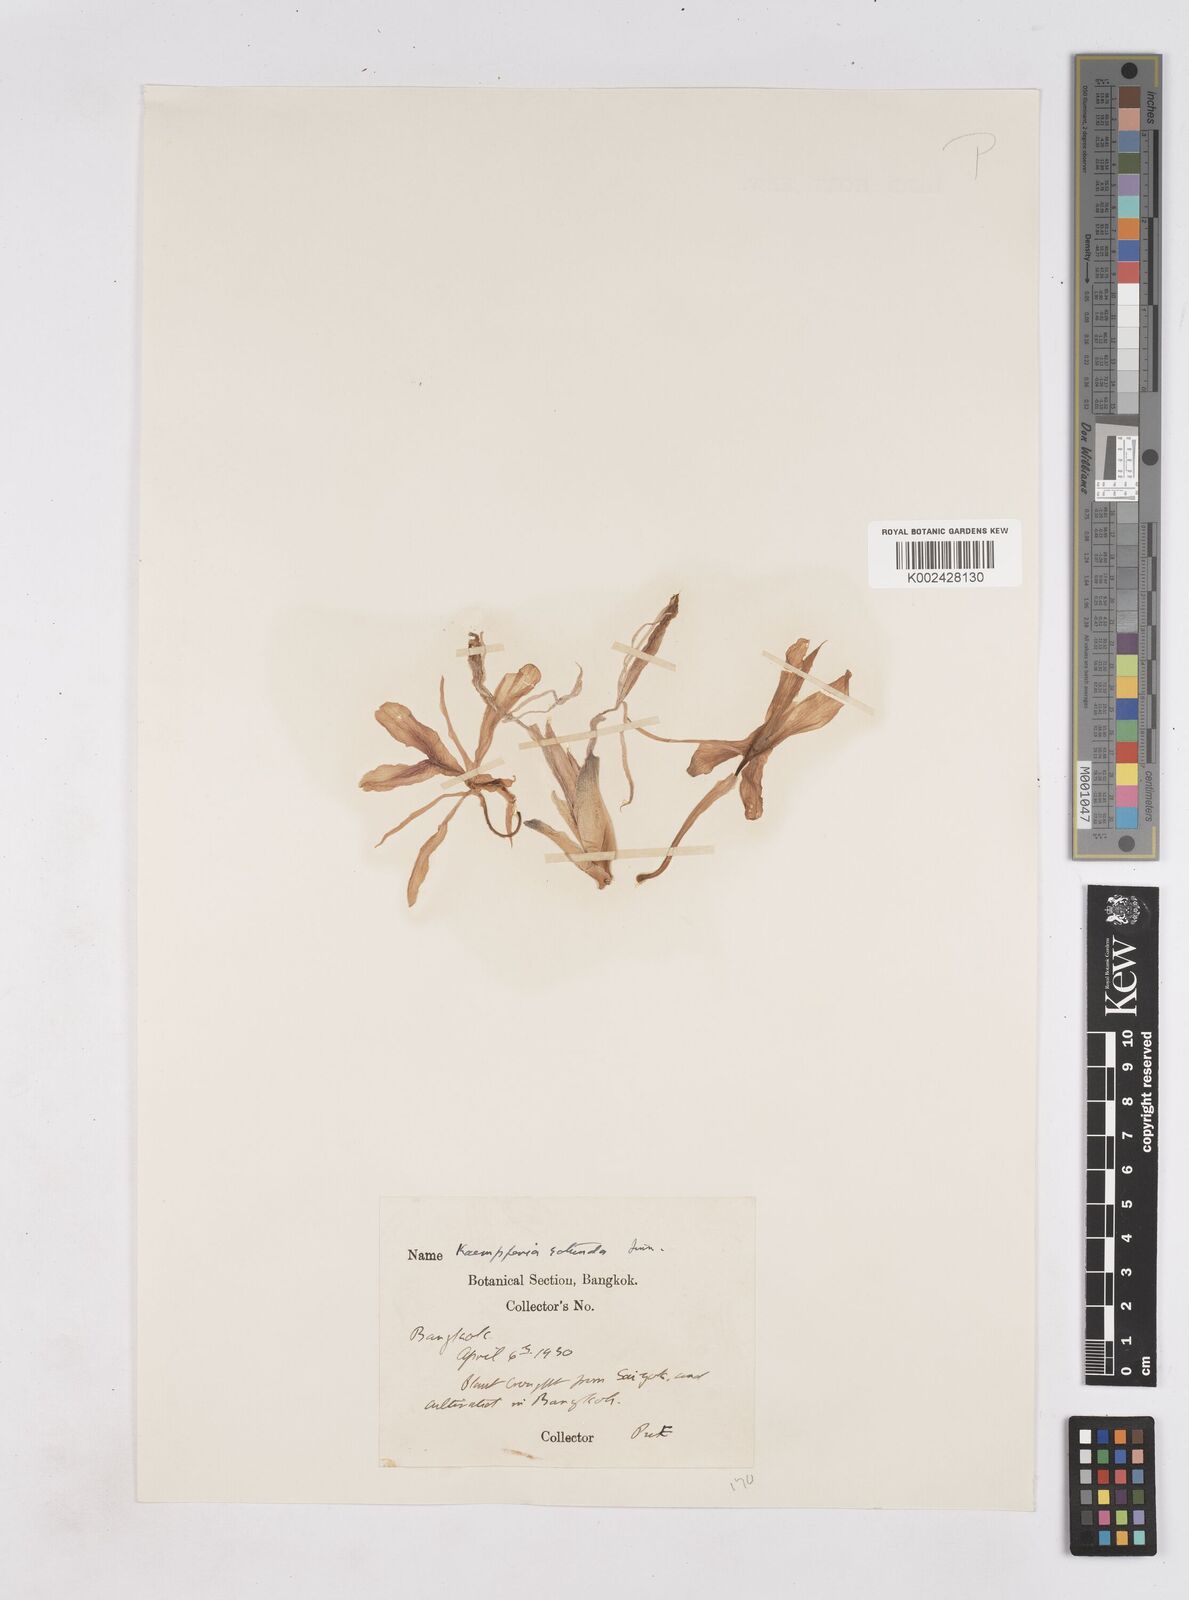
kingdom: Plantae
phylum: Tracheophyta
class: Liliopsida
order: Zingiberales
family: Zingiberaceae
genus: Kaempferia
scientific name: Kaempferia rotunda
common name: Tropical-crocus
